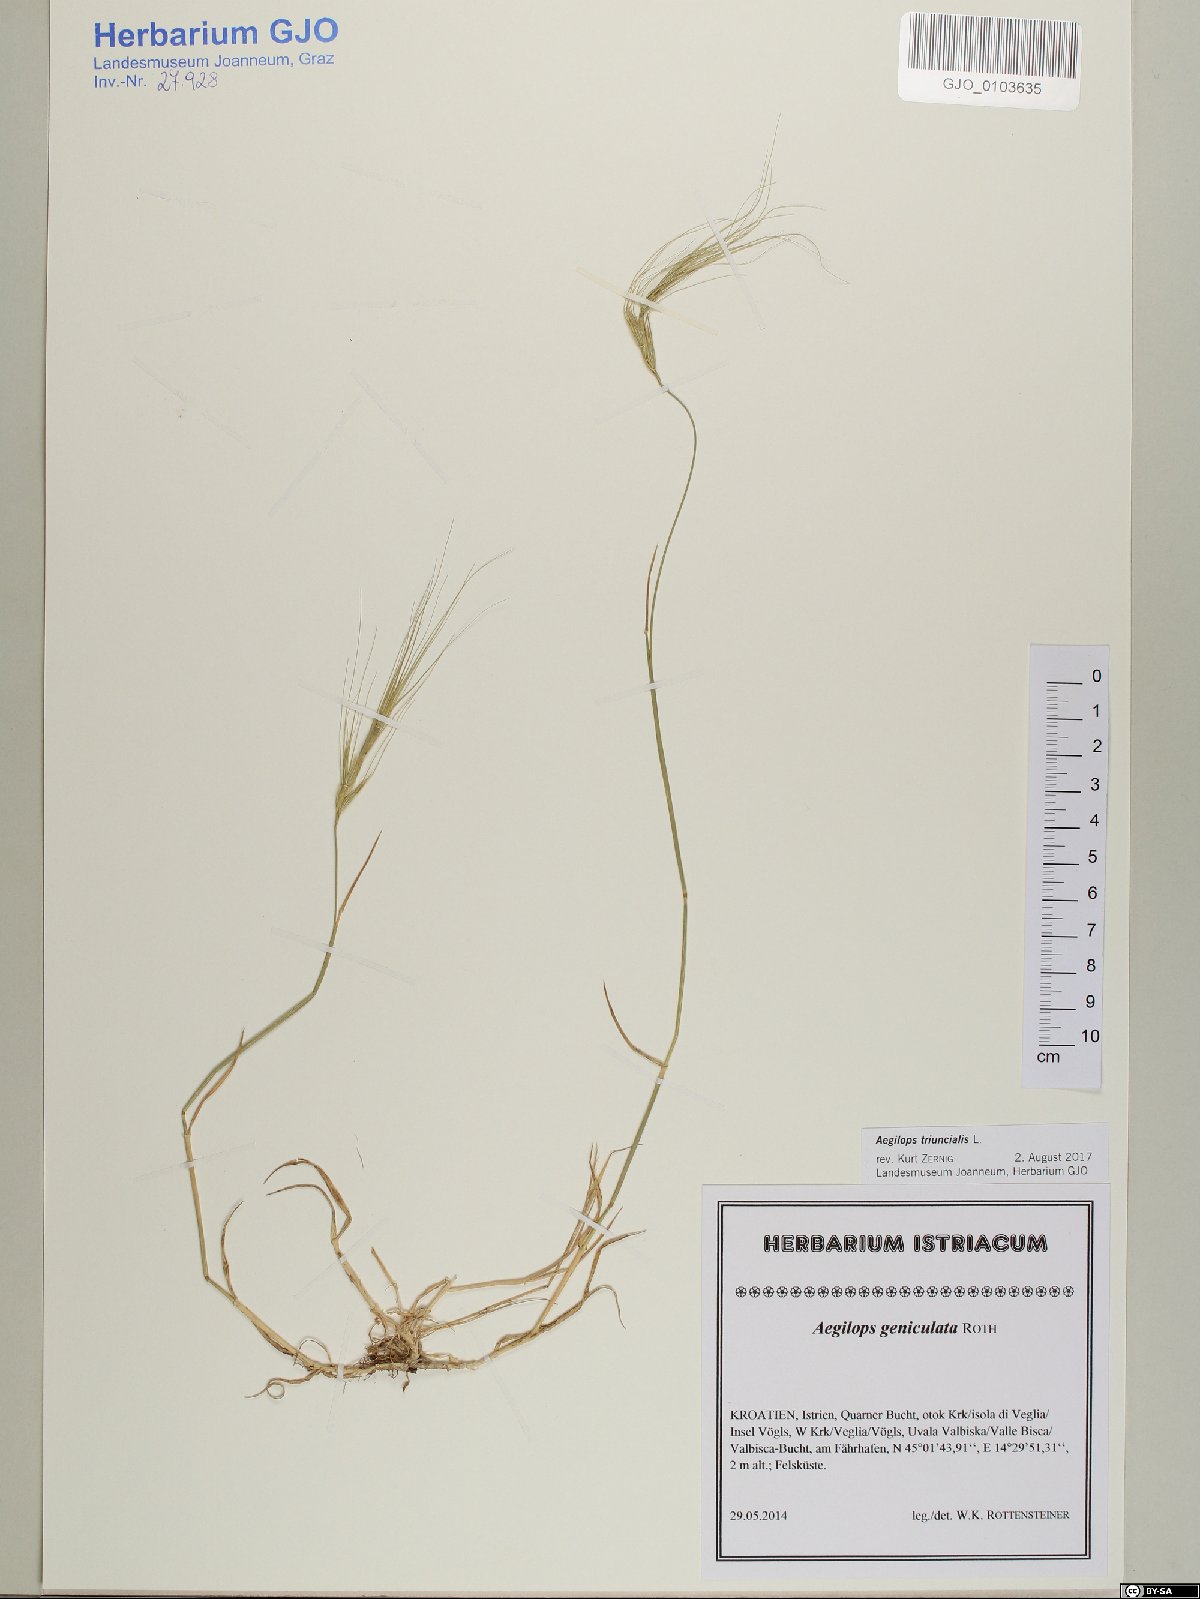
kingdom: Plantae
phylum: Tracheophyta
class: Liliopsida
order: Poales
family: Poaceae
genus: Aegilops
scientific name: Aegilops triuncialis
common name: Barb goat grass
